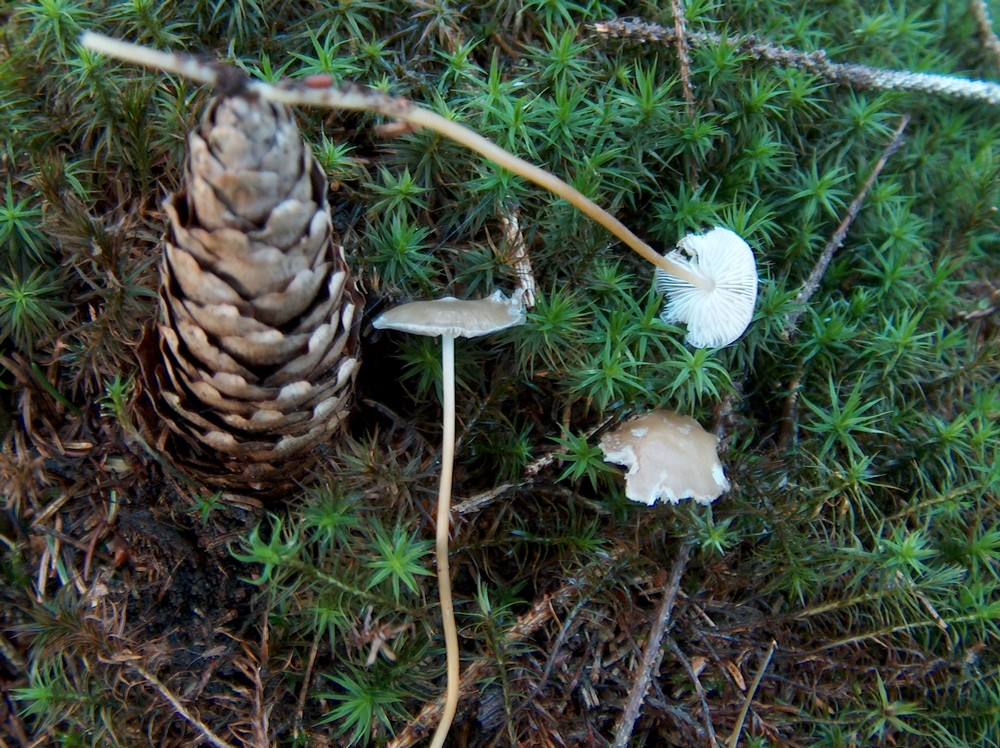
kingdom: Fungi
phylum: Basidiomycota
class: Agaricomycetes
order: Agaricales
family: Physalacriaceae
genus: Strobilurus
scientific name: Strobilurus esculentus
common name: gran-koglehat
